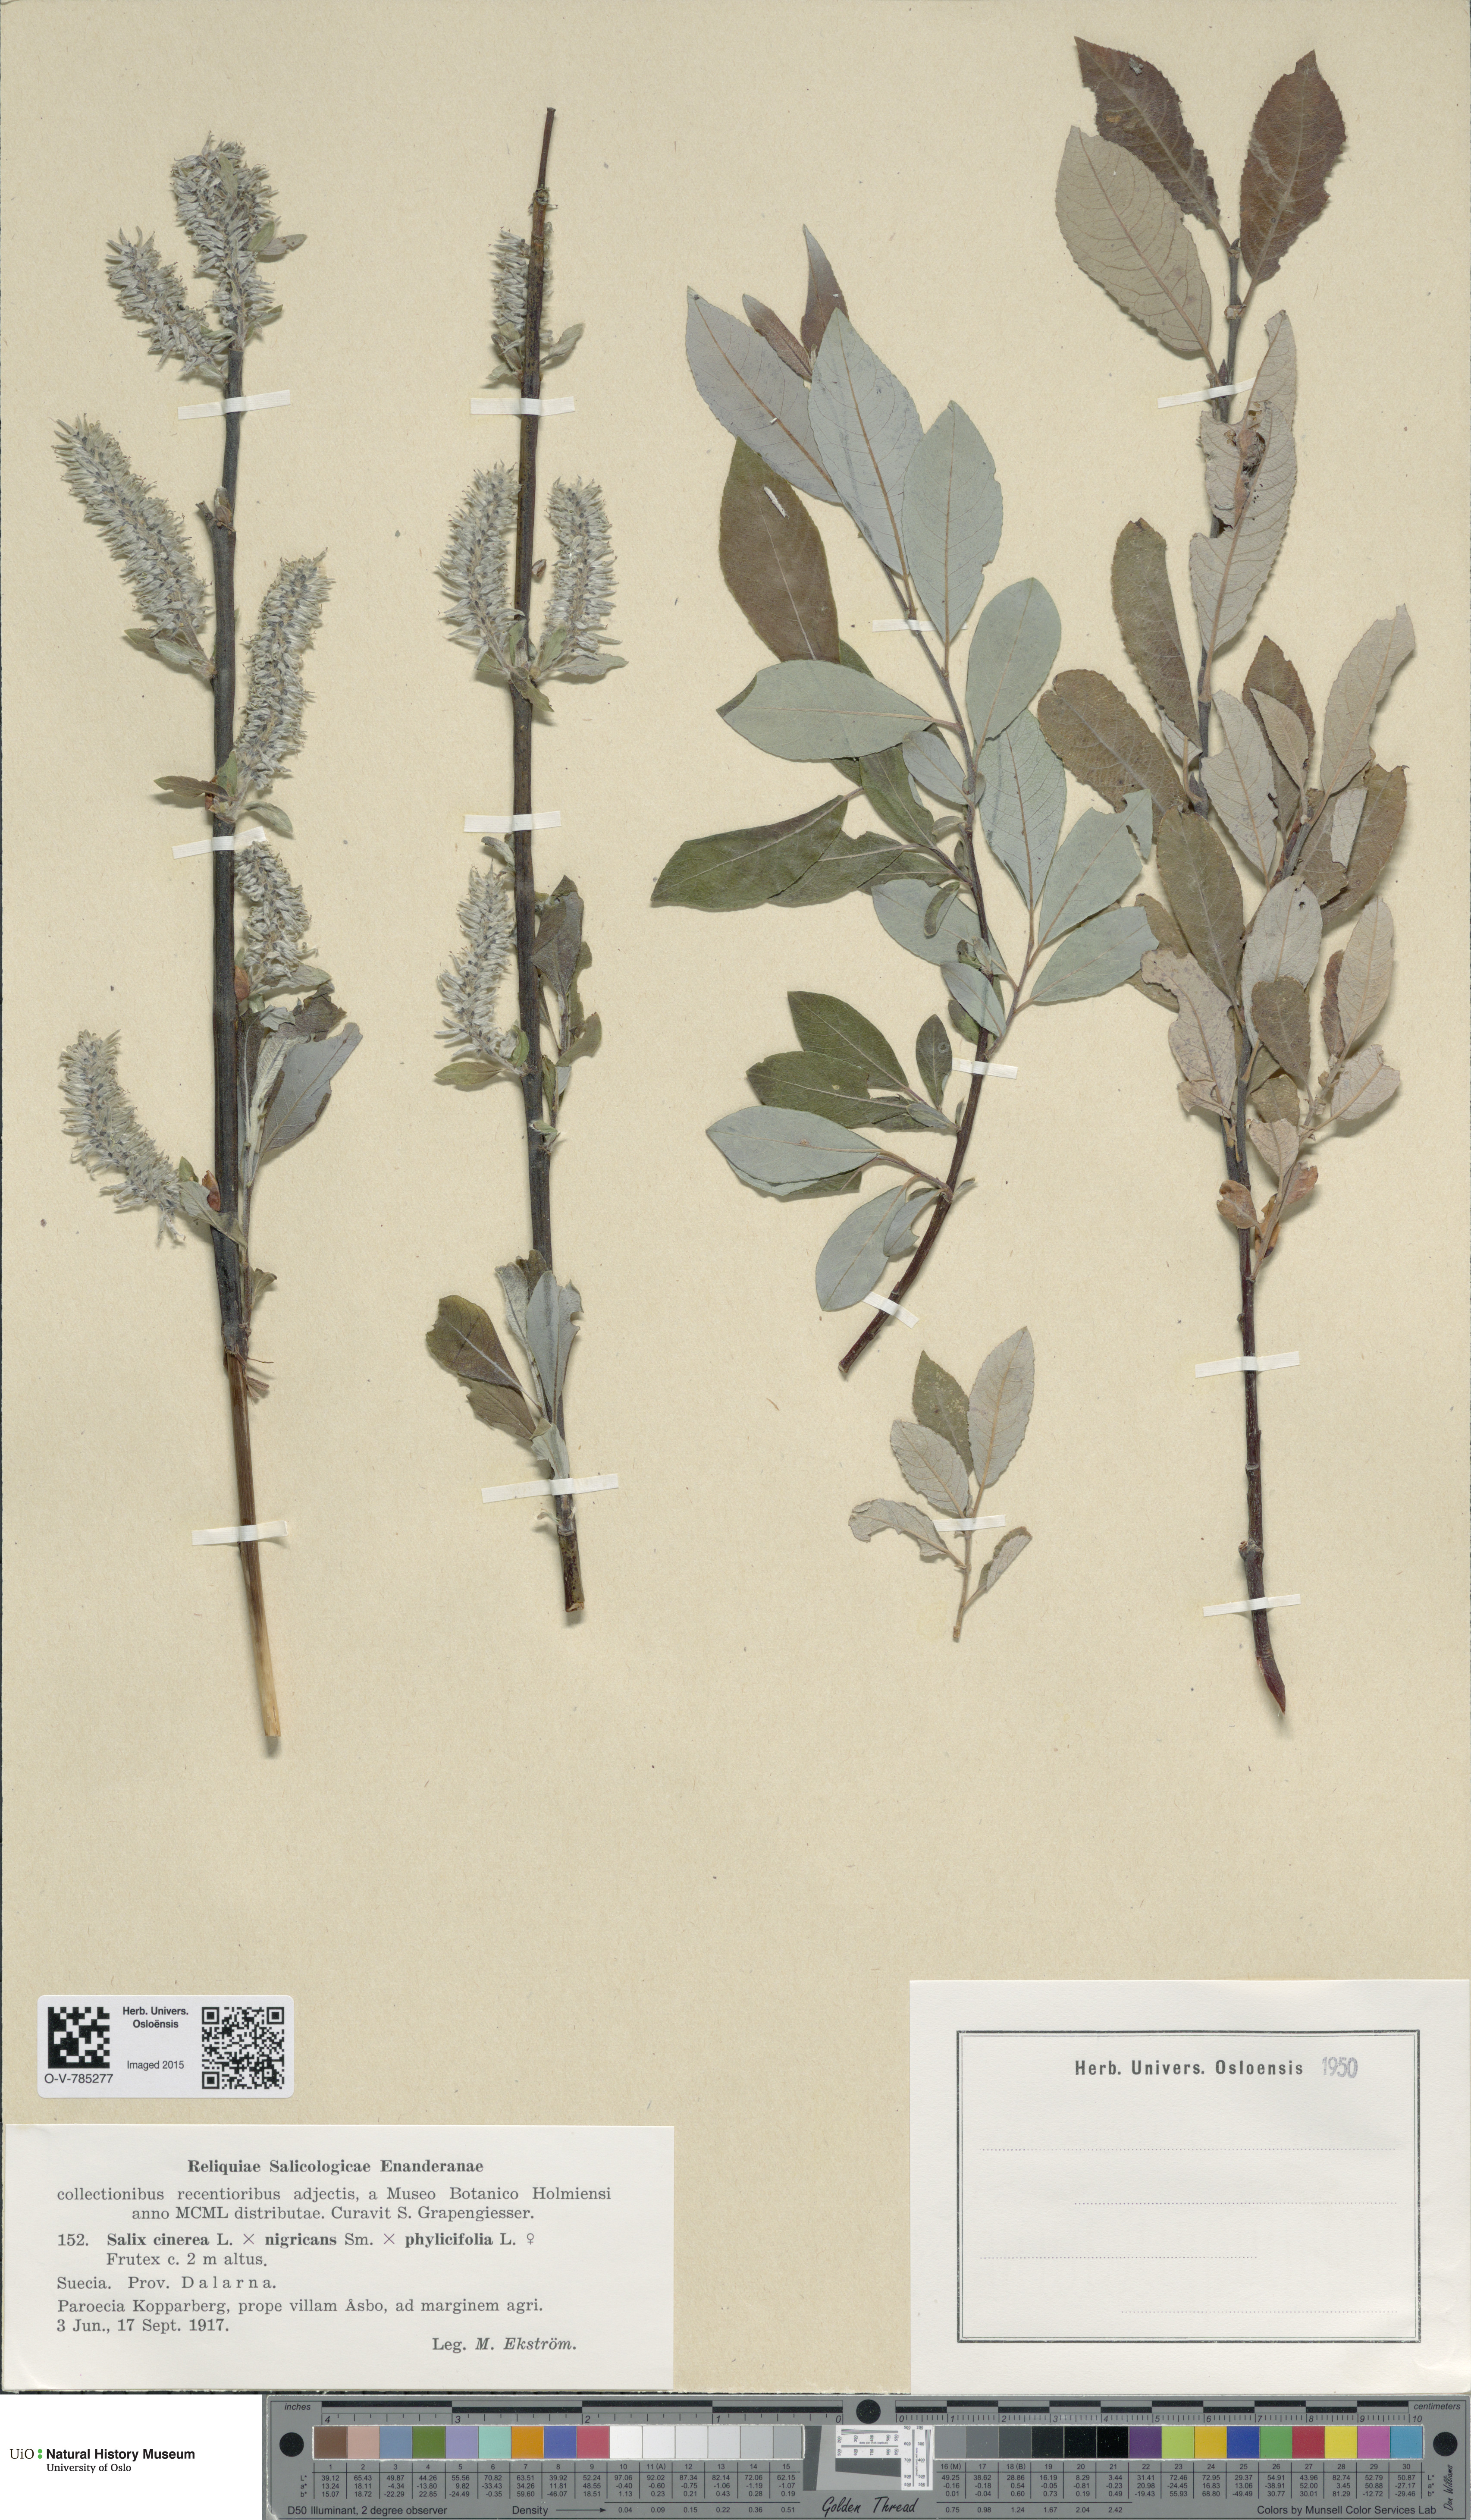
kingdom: Plantae
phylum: Tracheophyta
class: Magnoliopsida
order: Malpighiales
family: Salicaceae
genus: Salix
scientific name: Salix
